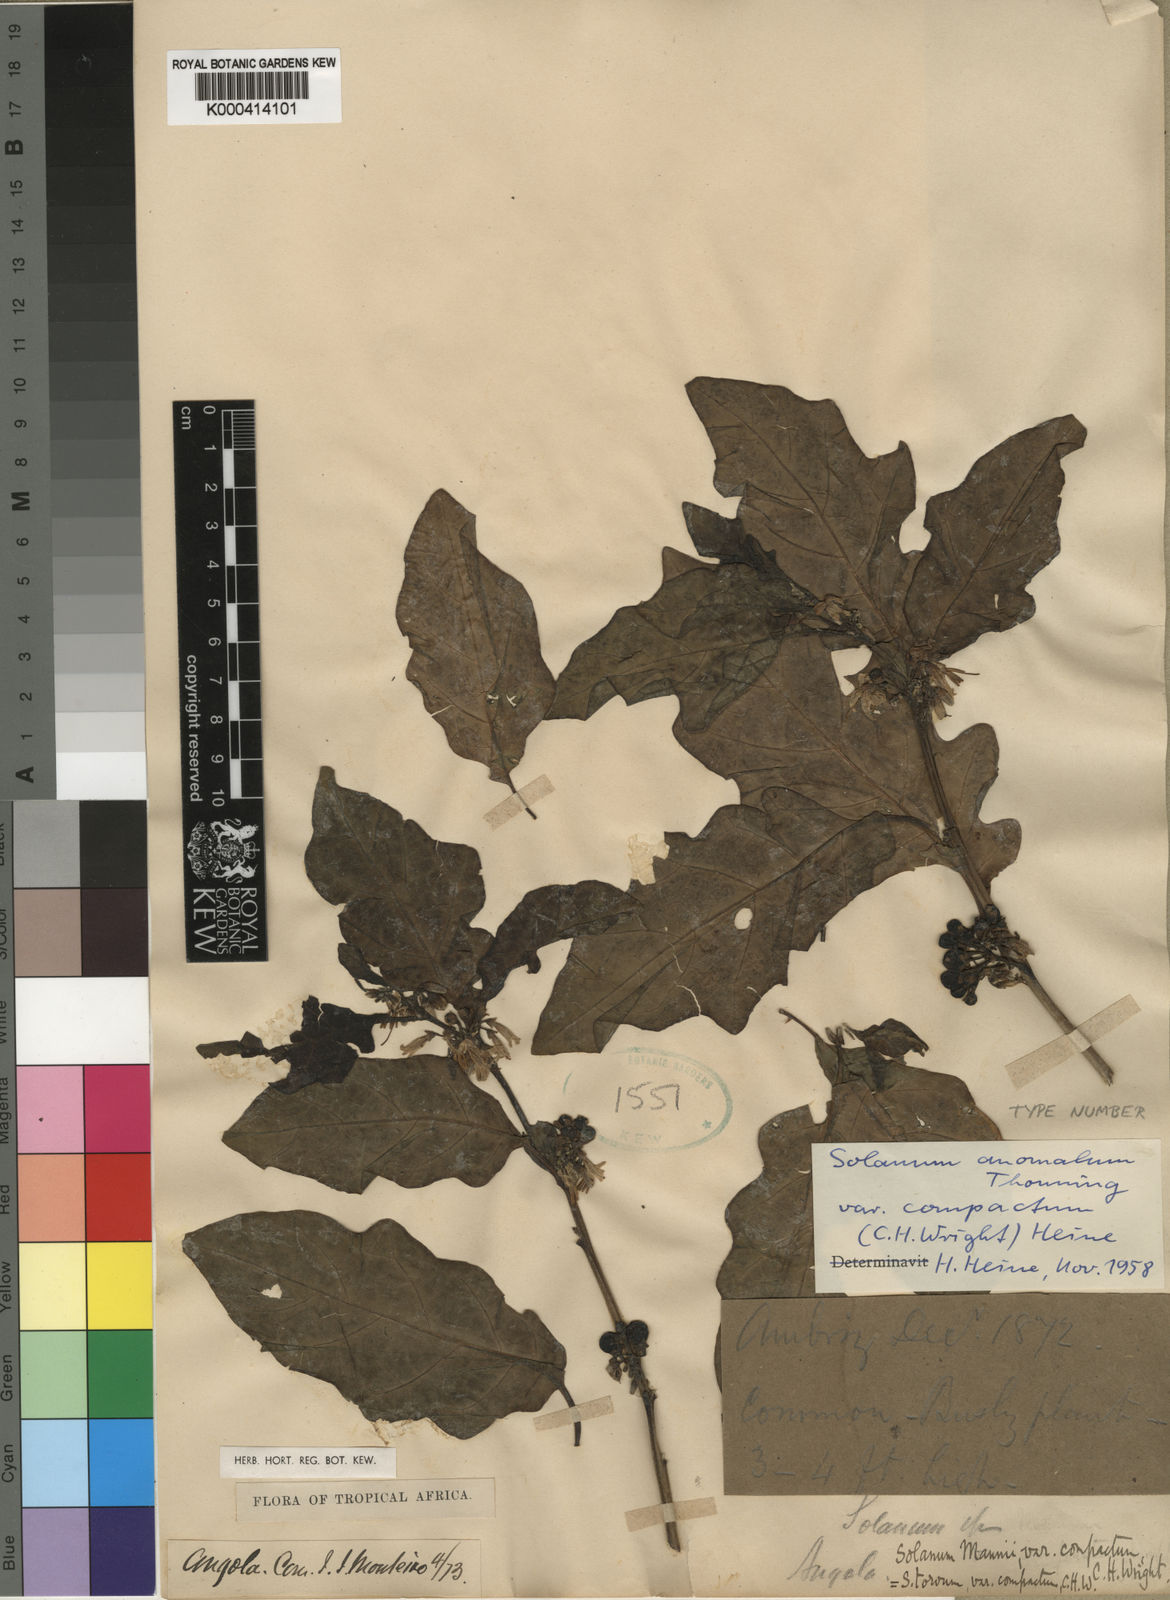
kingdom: Plantae
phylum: Tracheophyta
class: Magnoliopsida
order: Solanales
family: Solanaceae
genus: Solanum
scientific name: Solanum anomalum
